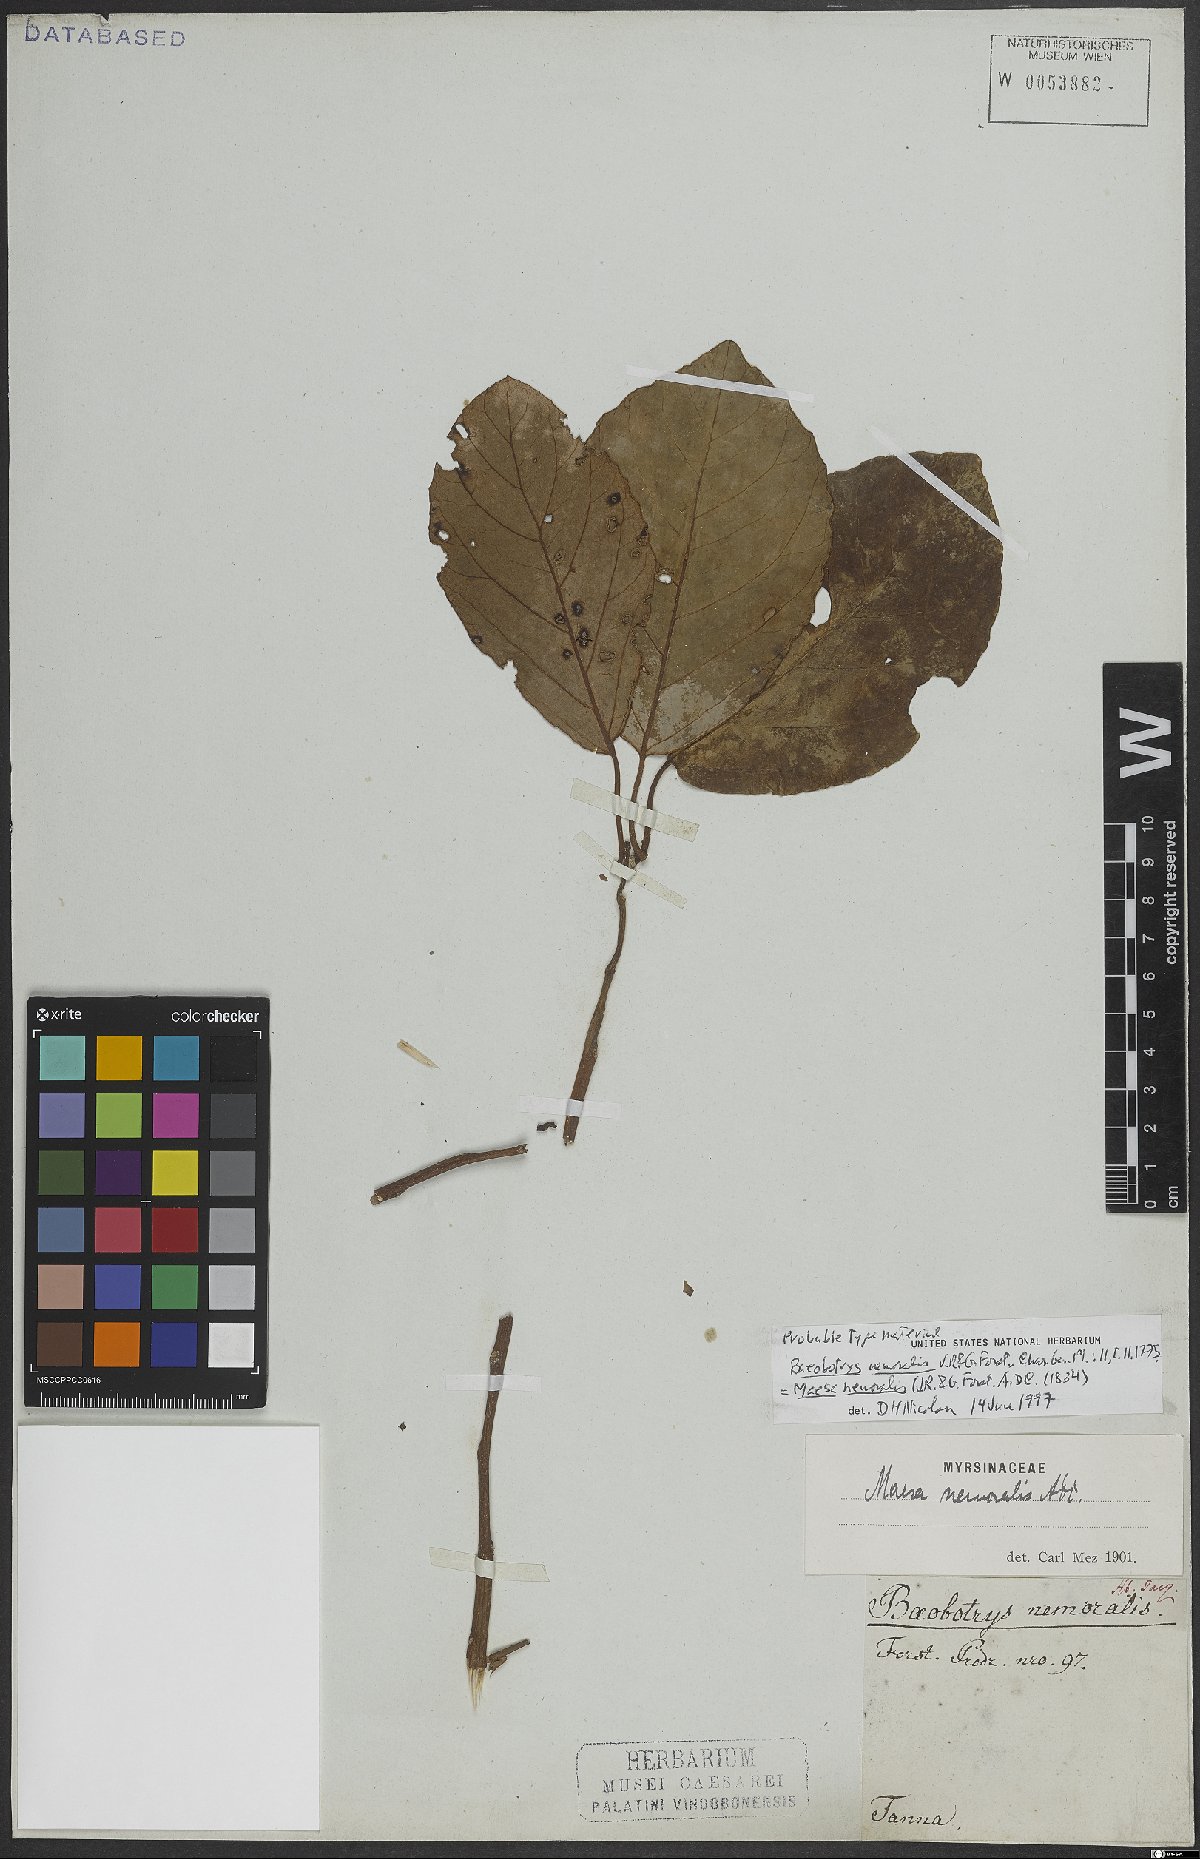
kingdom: Plantae
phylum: Tracheophyta
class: Magnoliopsida
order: Ericales
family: Primulaceae
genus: Maesa
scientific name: Maesa nemoralis
